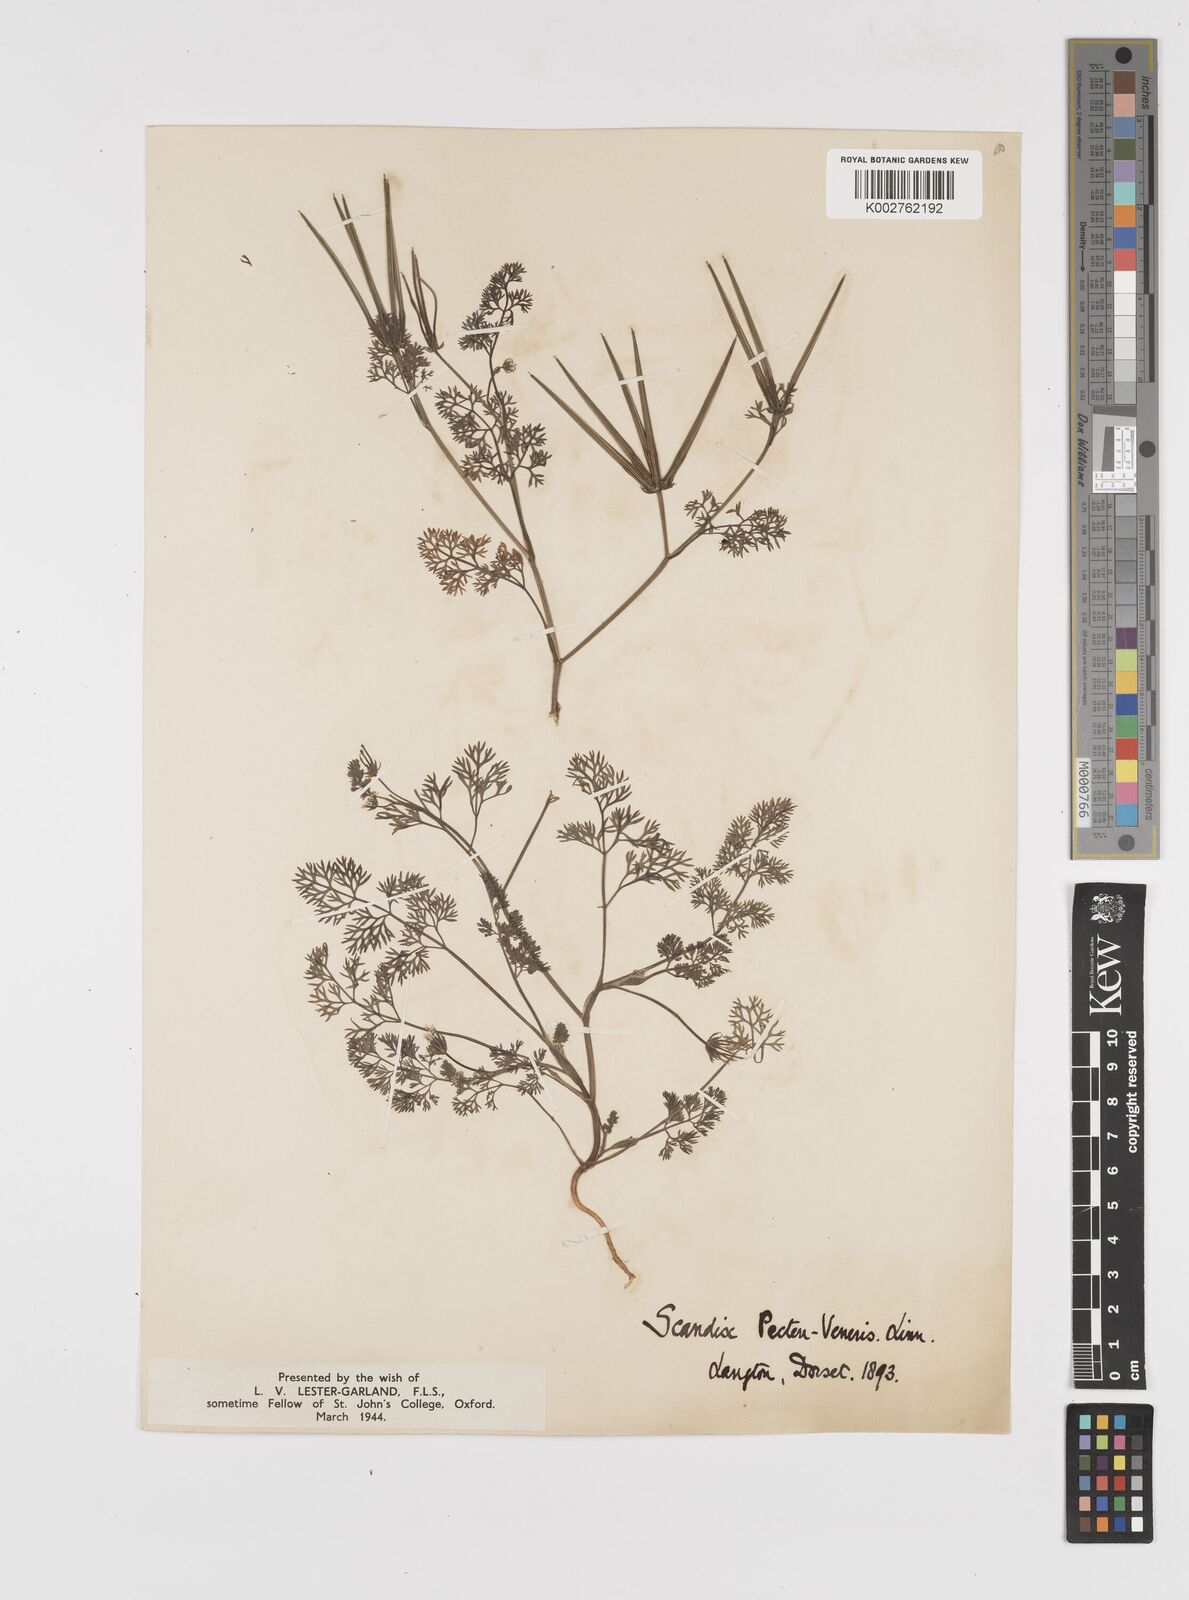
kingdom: Plantae
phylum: Tracheophyta
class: Magnoliopsida
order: Apiales
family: Apiaceae
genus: Scandix
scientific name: Scandix pecten-veneris
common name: Shepherd's-needle
